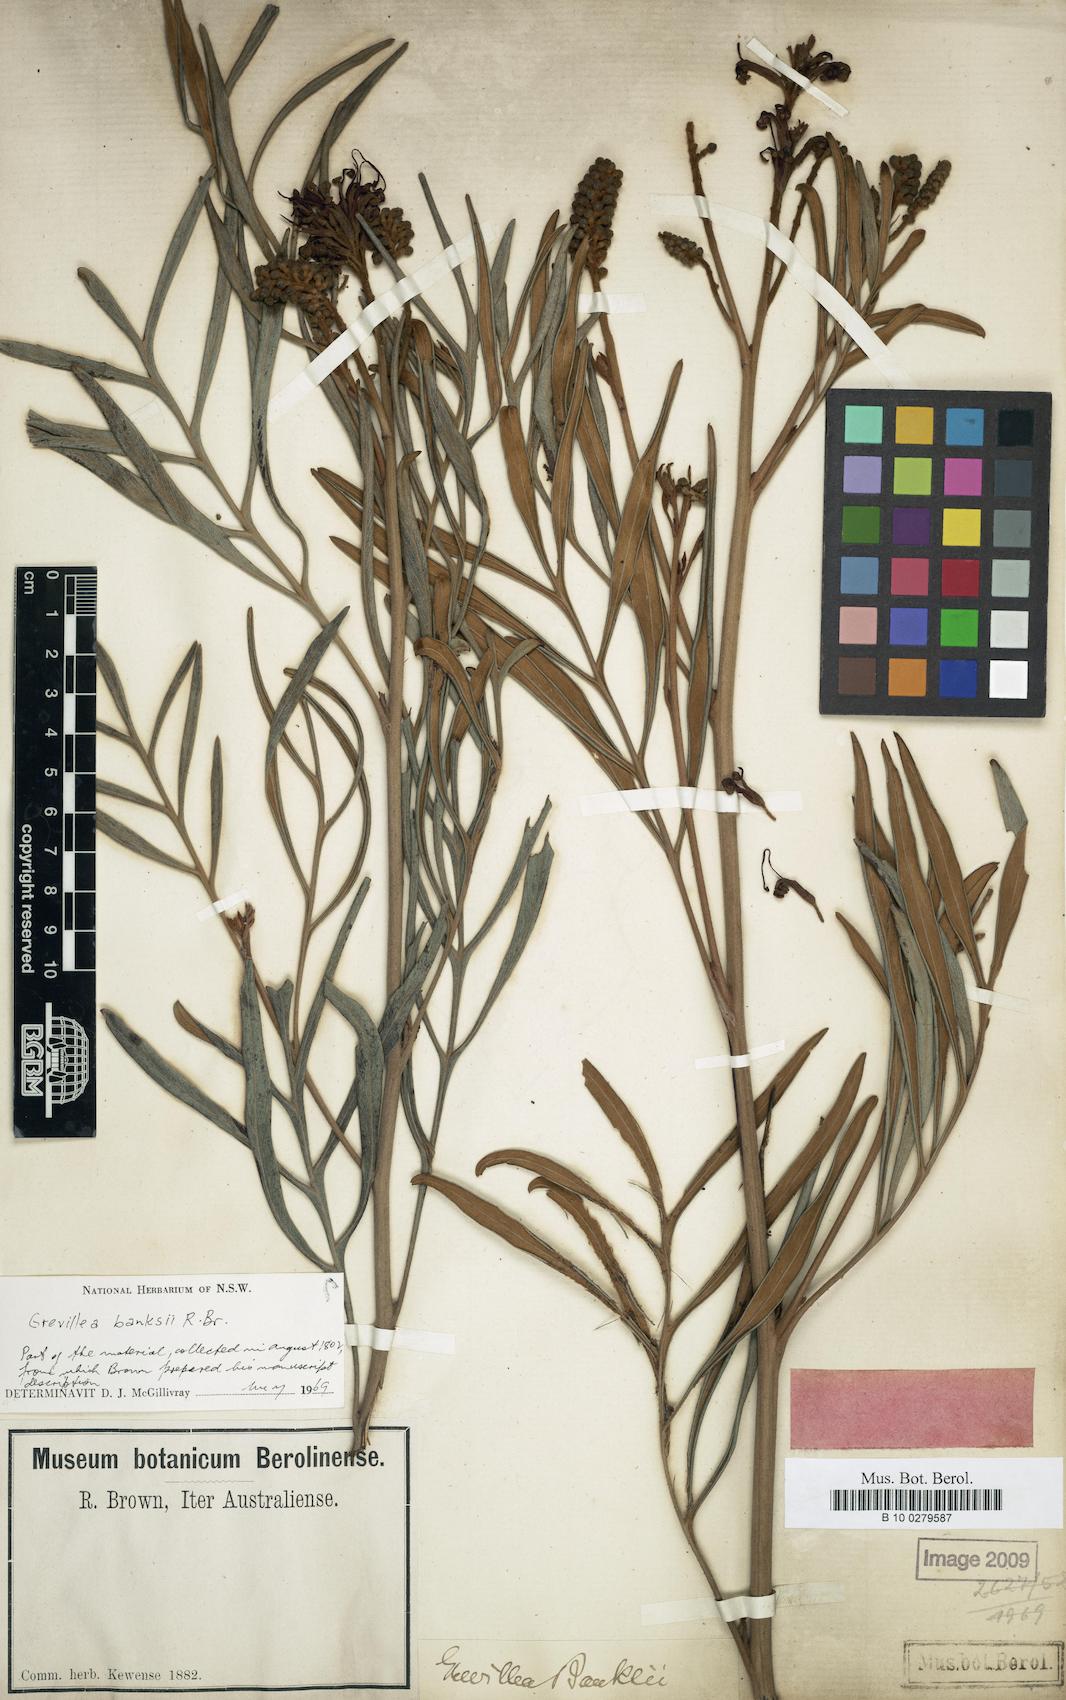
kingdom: Plantae
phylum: Tracheophyta
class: Magnoliopsida
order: Proteales
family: Proteaceae
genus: Grevillea
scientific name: Grevillea banksii
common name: Kahili flower
